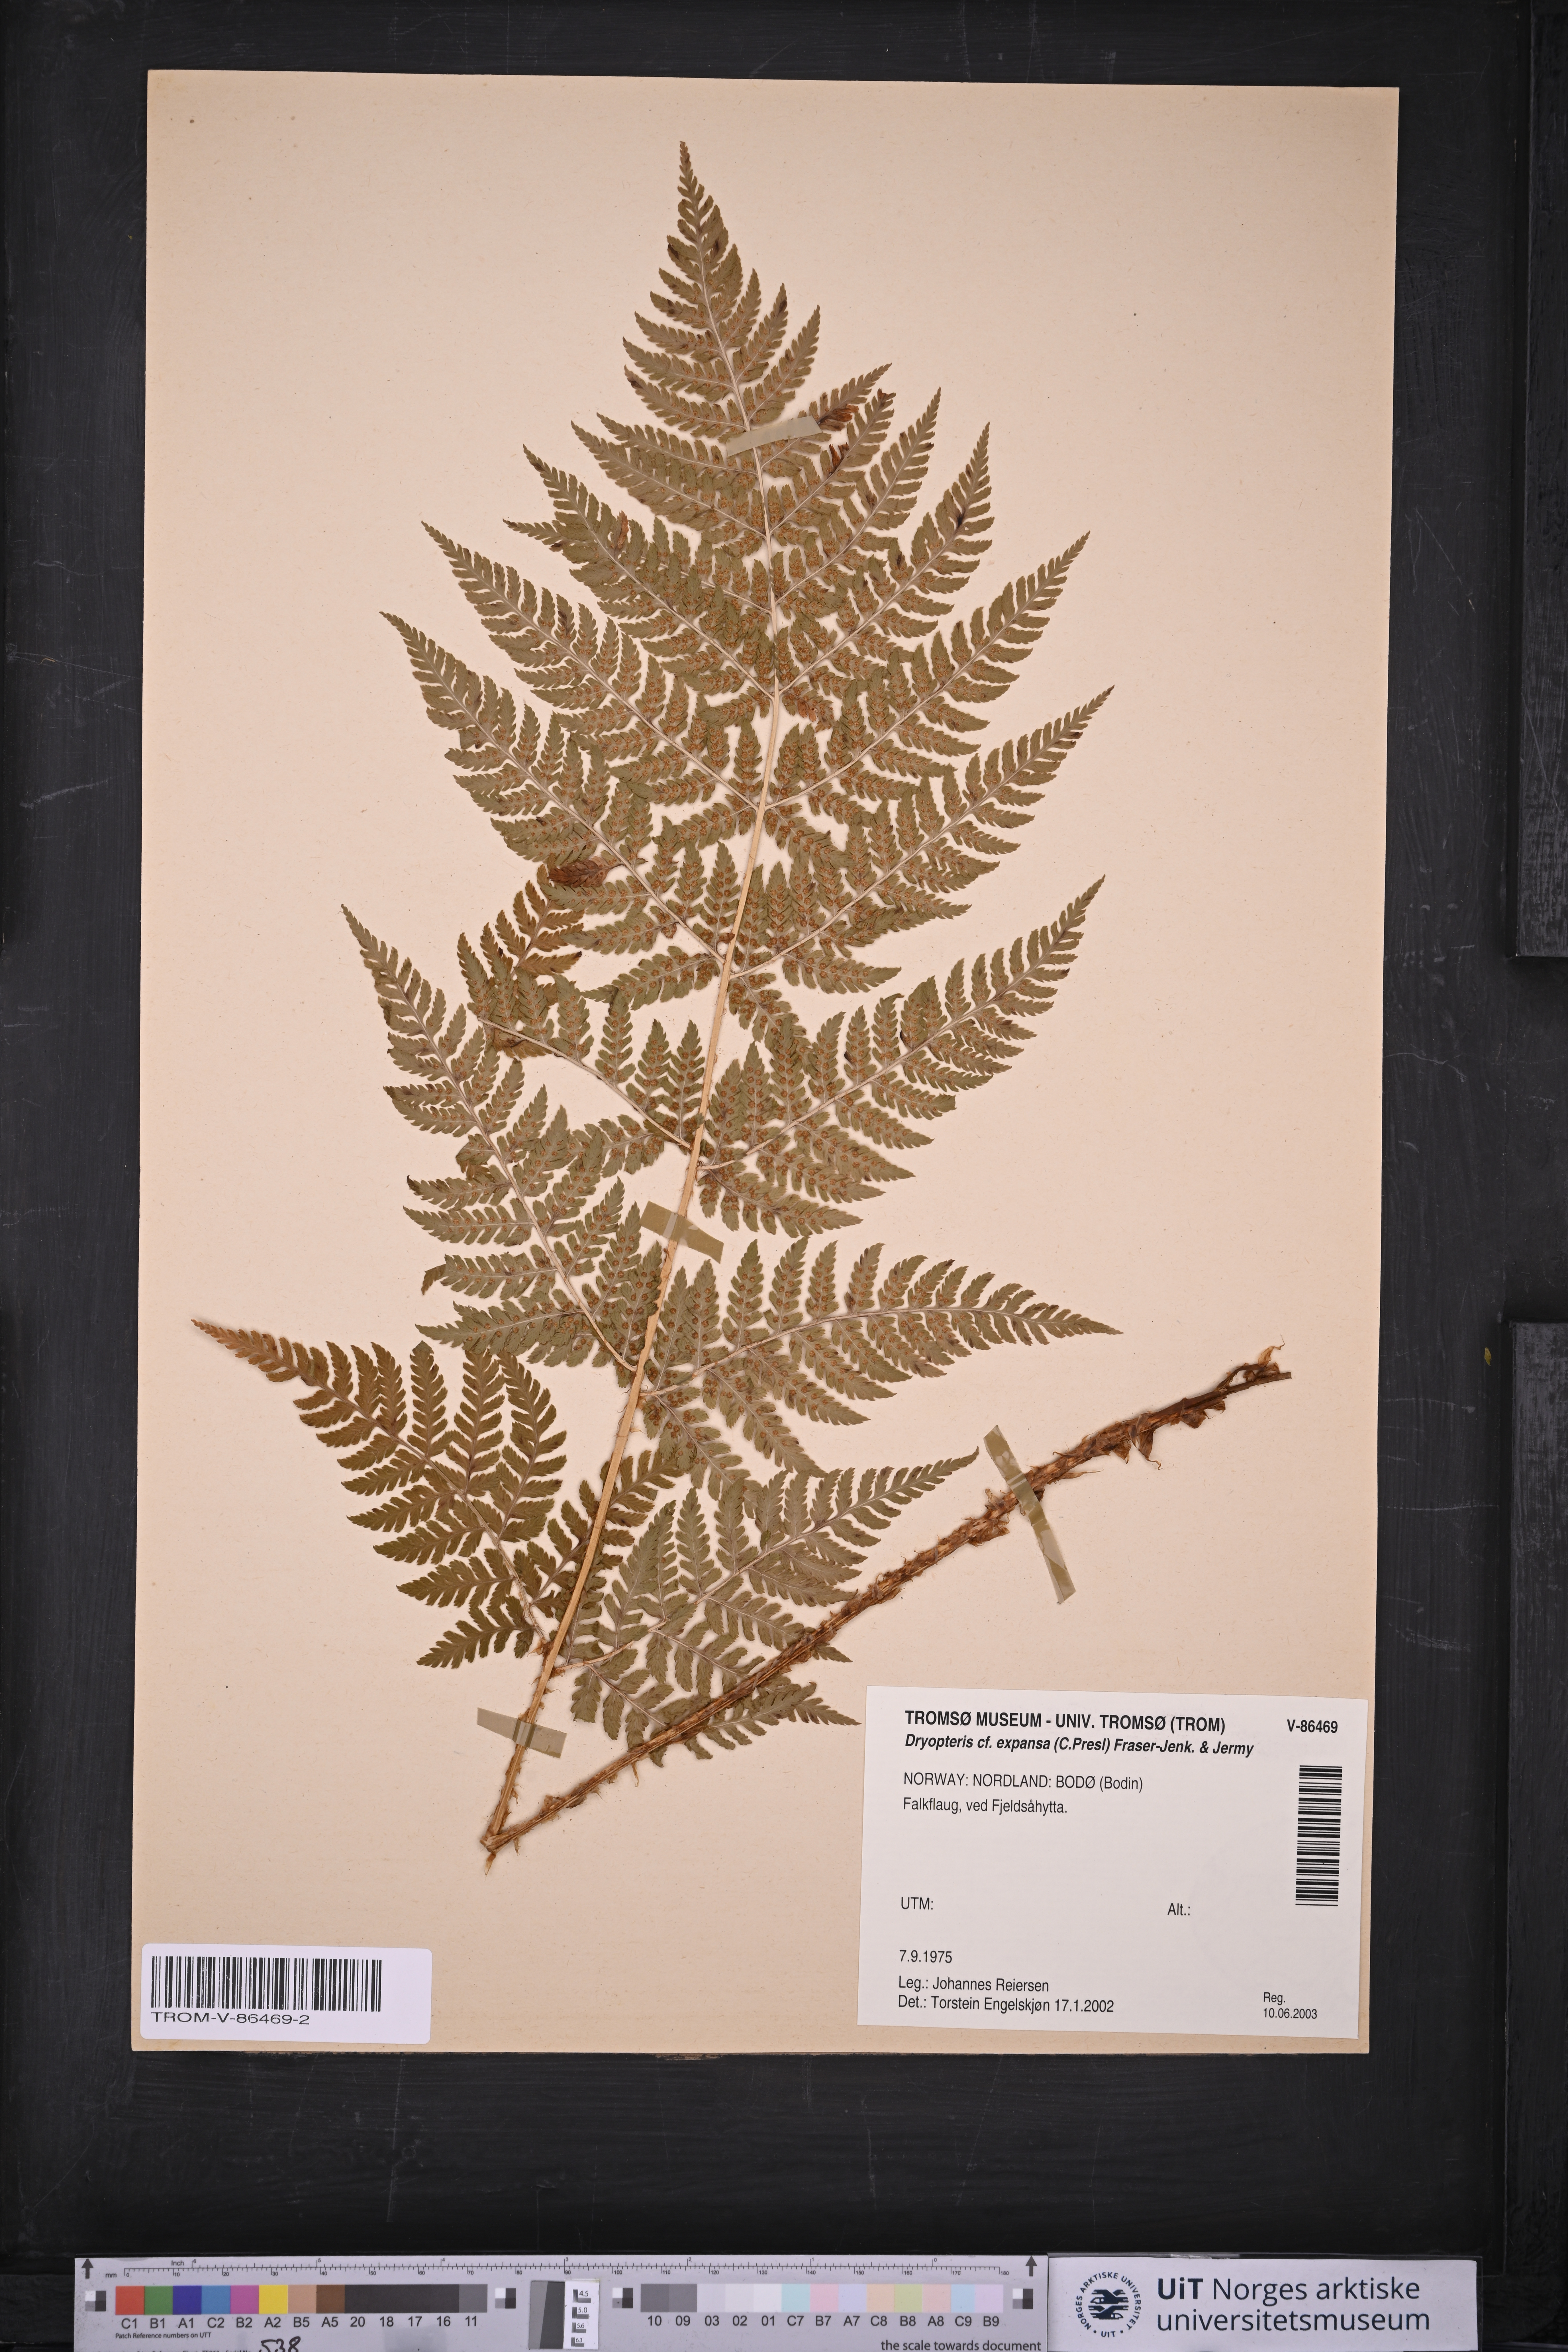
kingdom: Plantae
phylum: Tracheophyta
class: Polypodiopsida
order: Polypodiales
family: Dryopteridaceae
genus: Dryopteris
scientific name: Dryopteris expansa
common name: Northern buckler fern
